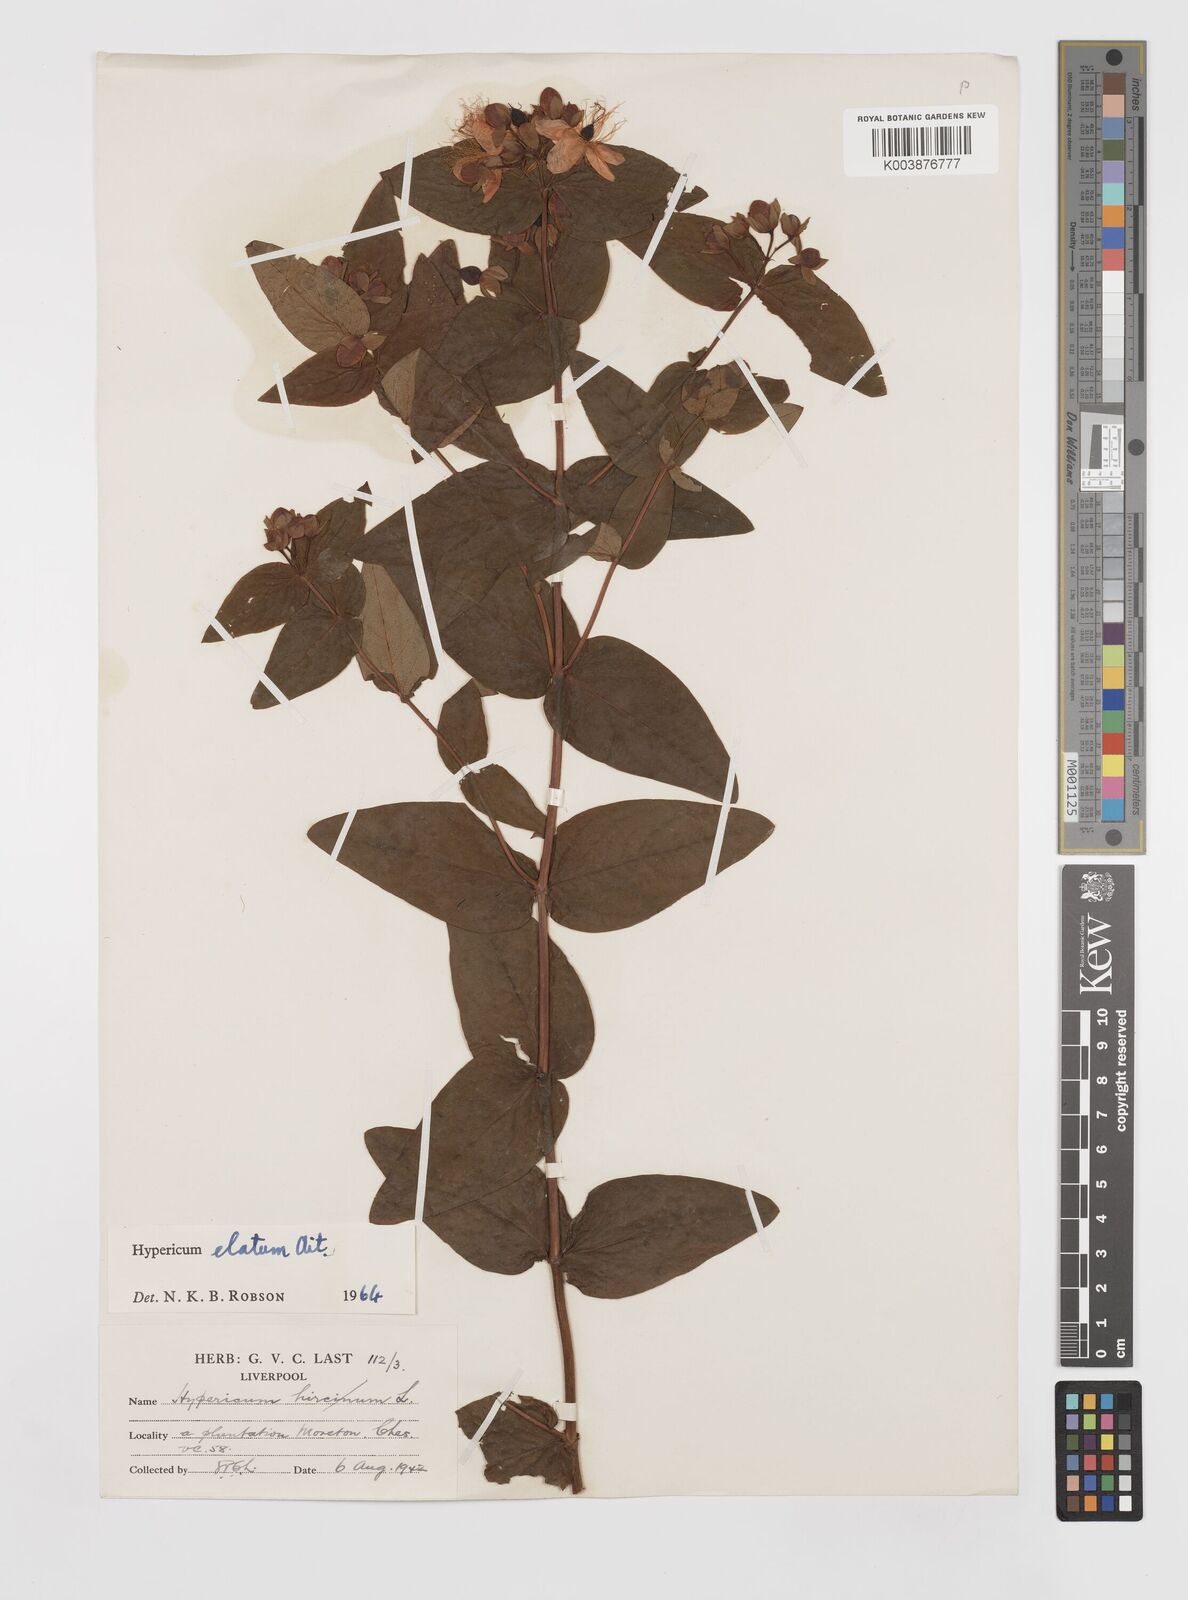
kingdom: Plantae
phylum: Tracheophyta
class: Magnoliopsida
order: Malpighiales
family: Hypericaceae
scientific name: Hypericaceae
